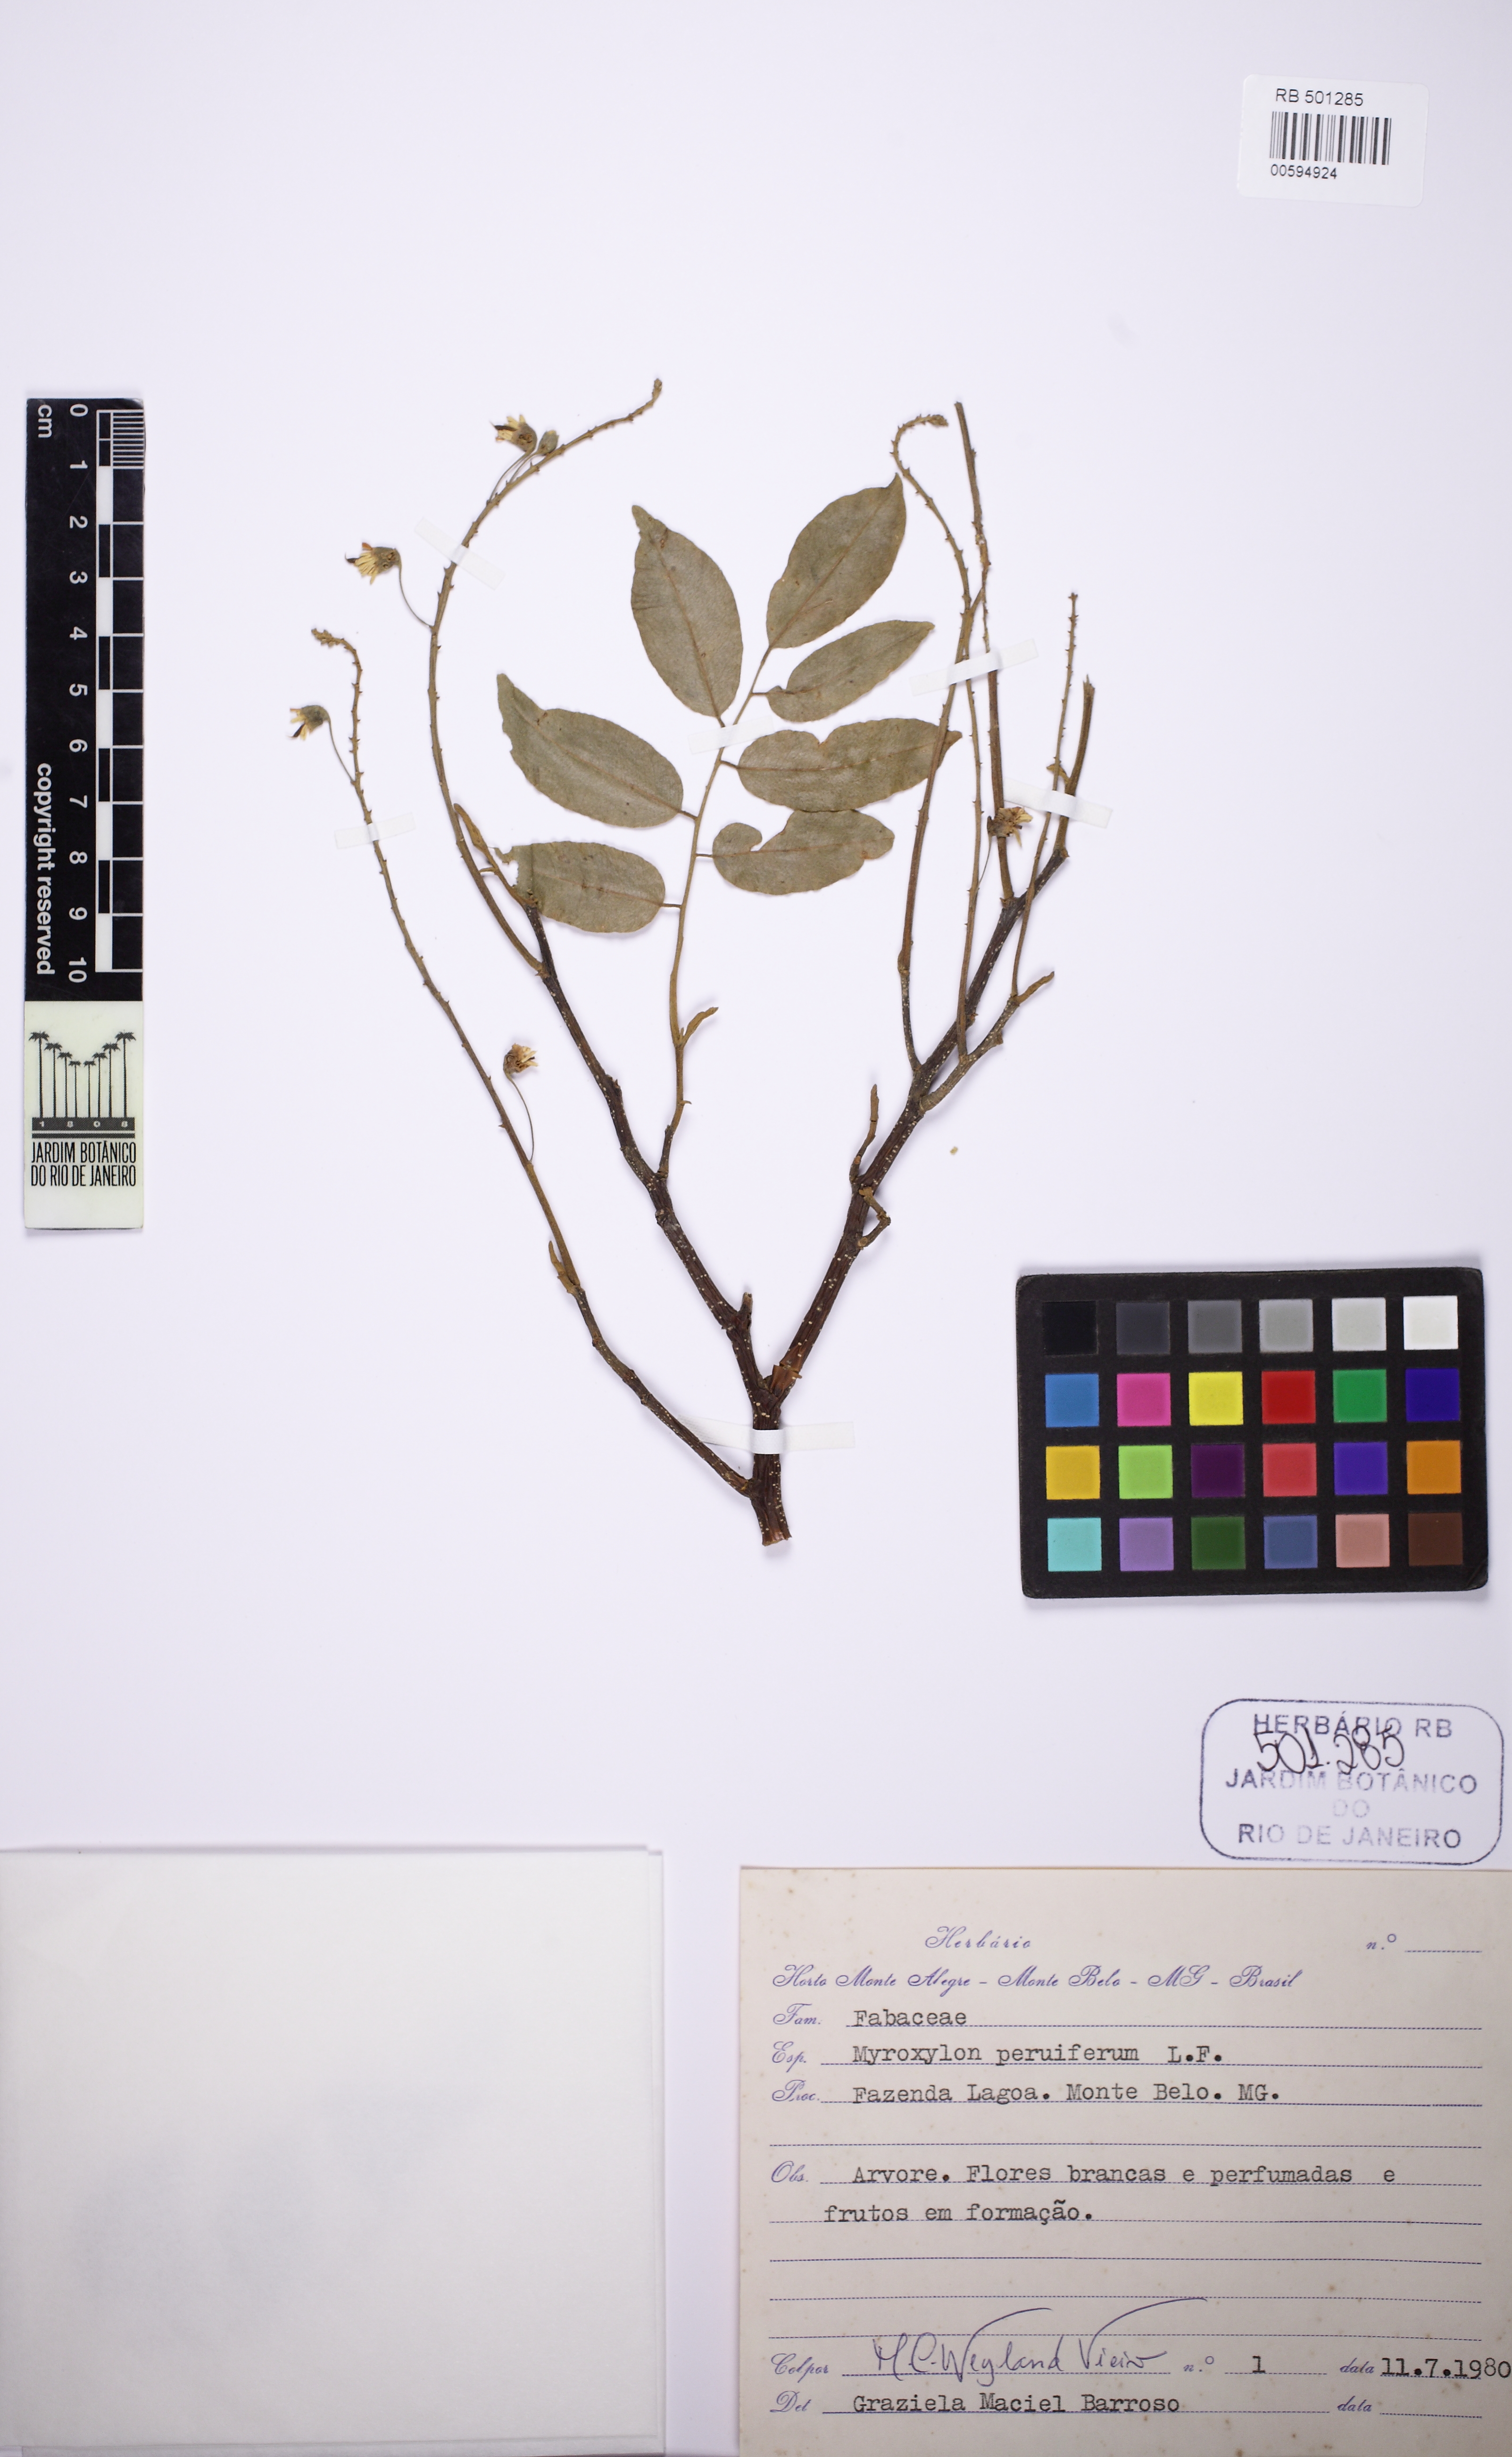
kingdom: Plantae
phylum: Tracheophyta
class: Magnoliopsida
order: Fabales
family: Fabaceae
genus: Myroxylon
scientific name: Myroxylon peruiferum
